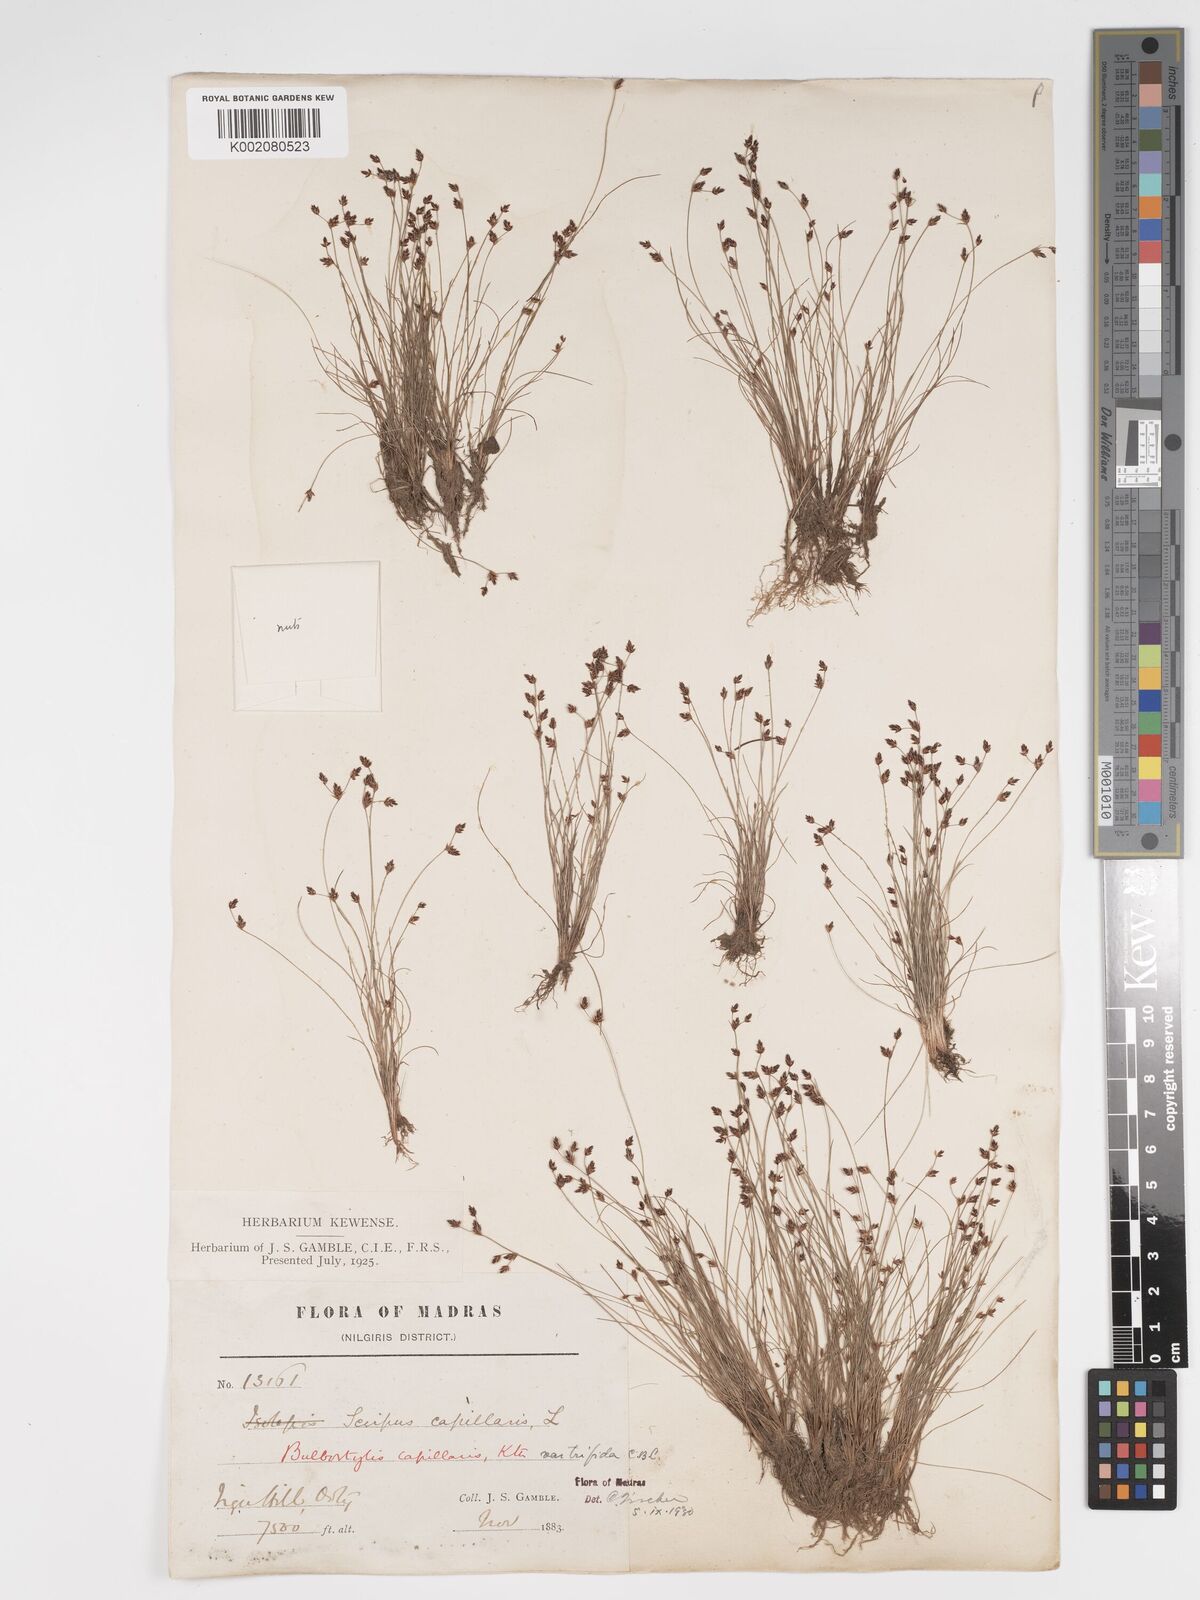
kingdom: Plantae
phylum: Tracheophyta
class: Liliopsida
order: Poales
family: Cyperaceae
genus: Bulbostylis
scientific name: Bulbostylis capillaris
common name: Densetuft hairsedge
